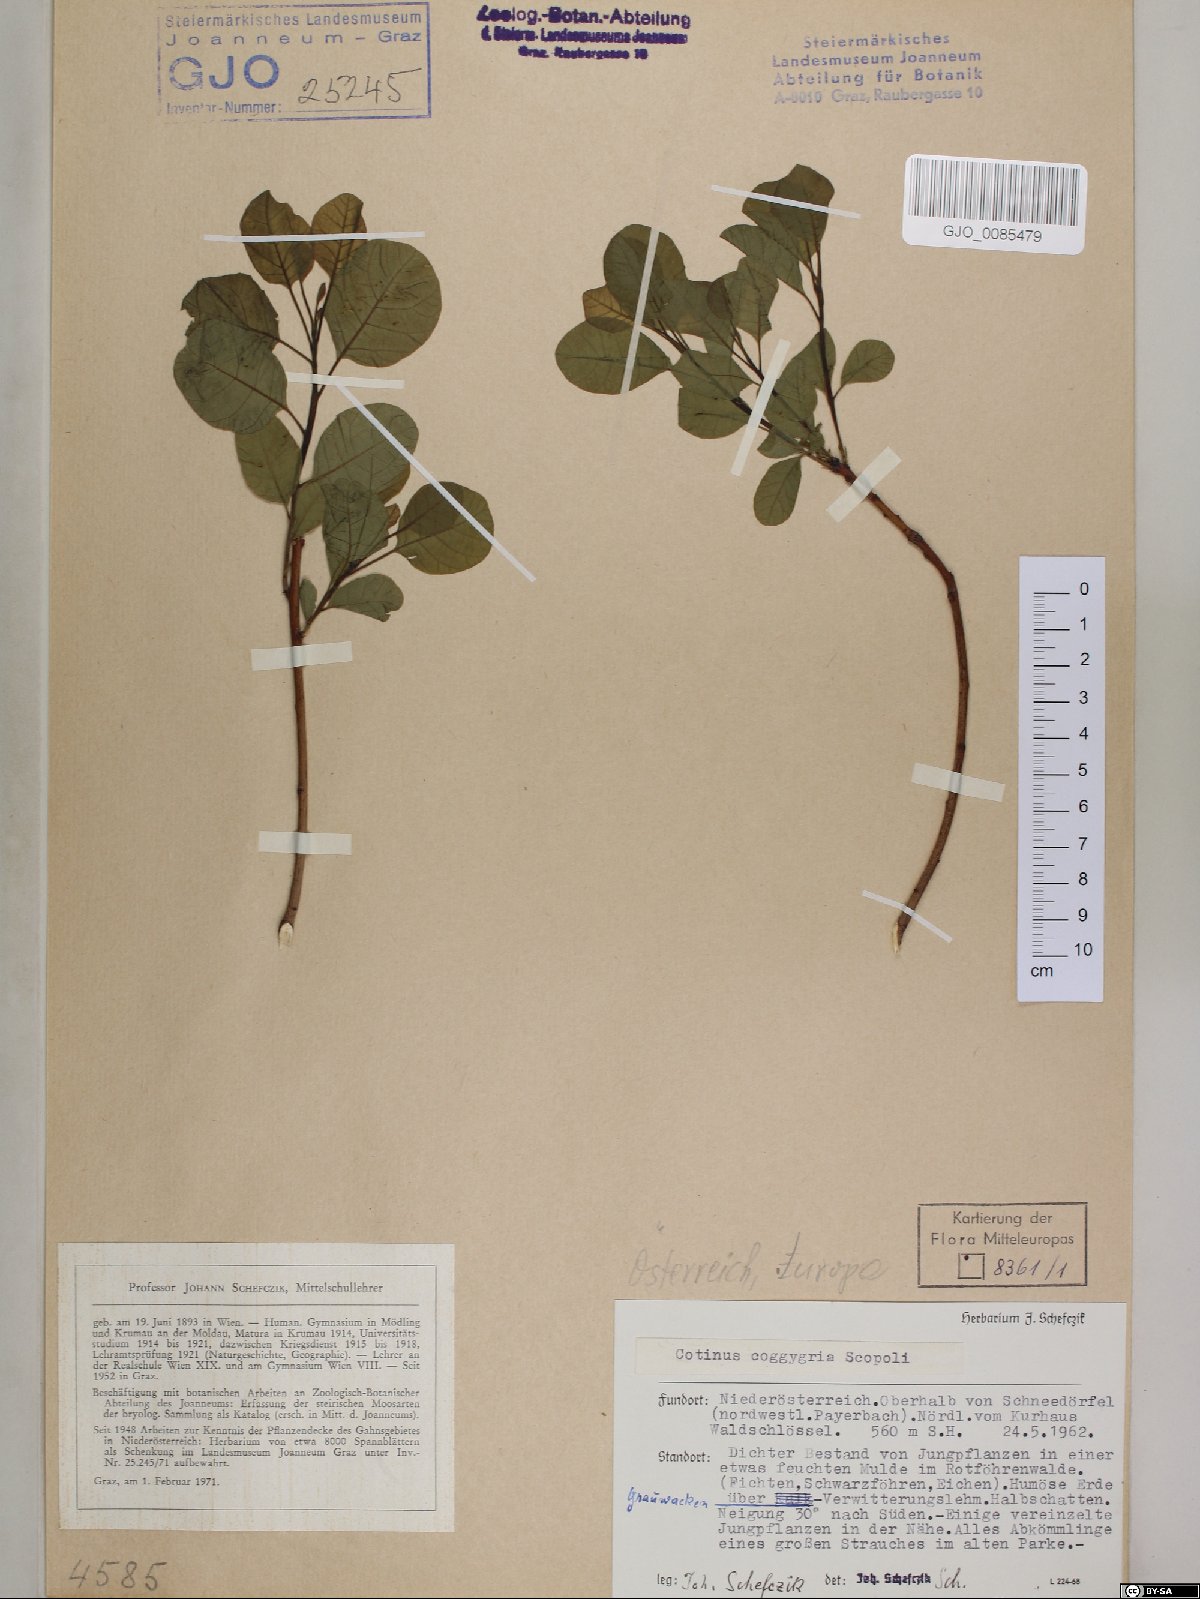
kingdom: Plantae
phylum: Tracheophyta
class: Magnoliopsida
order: Sapindales
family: Anacardiaceae
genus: Cotinus
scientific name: Cotinus coggygria
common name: Smoke-tree
